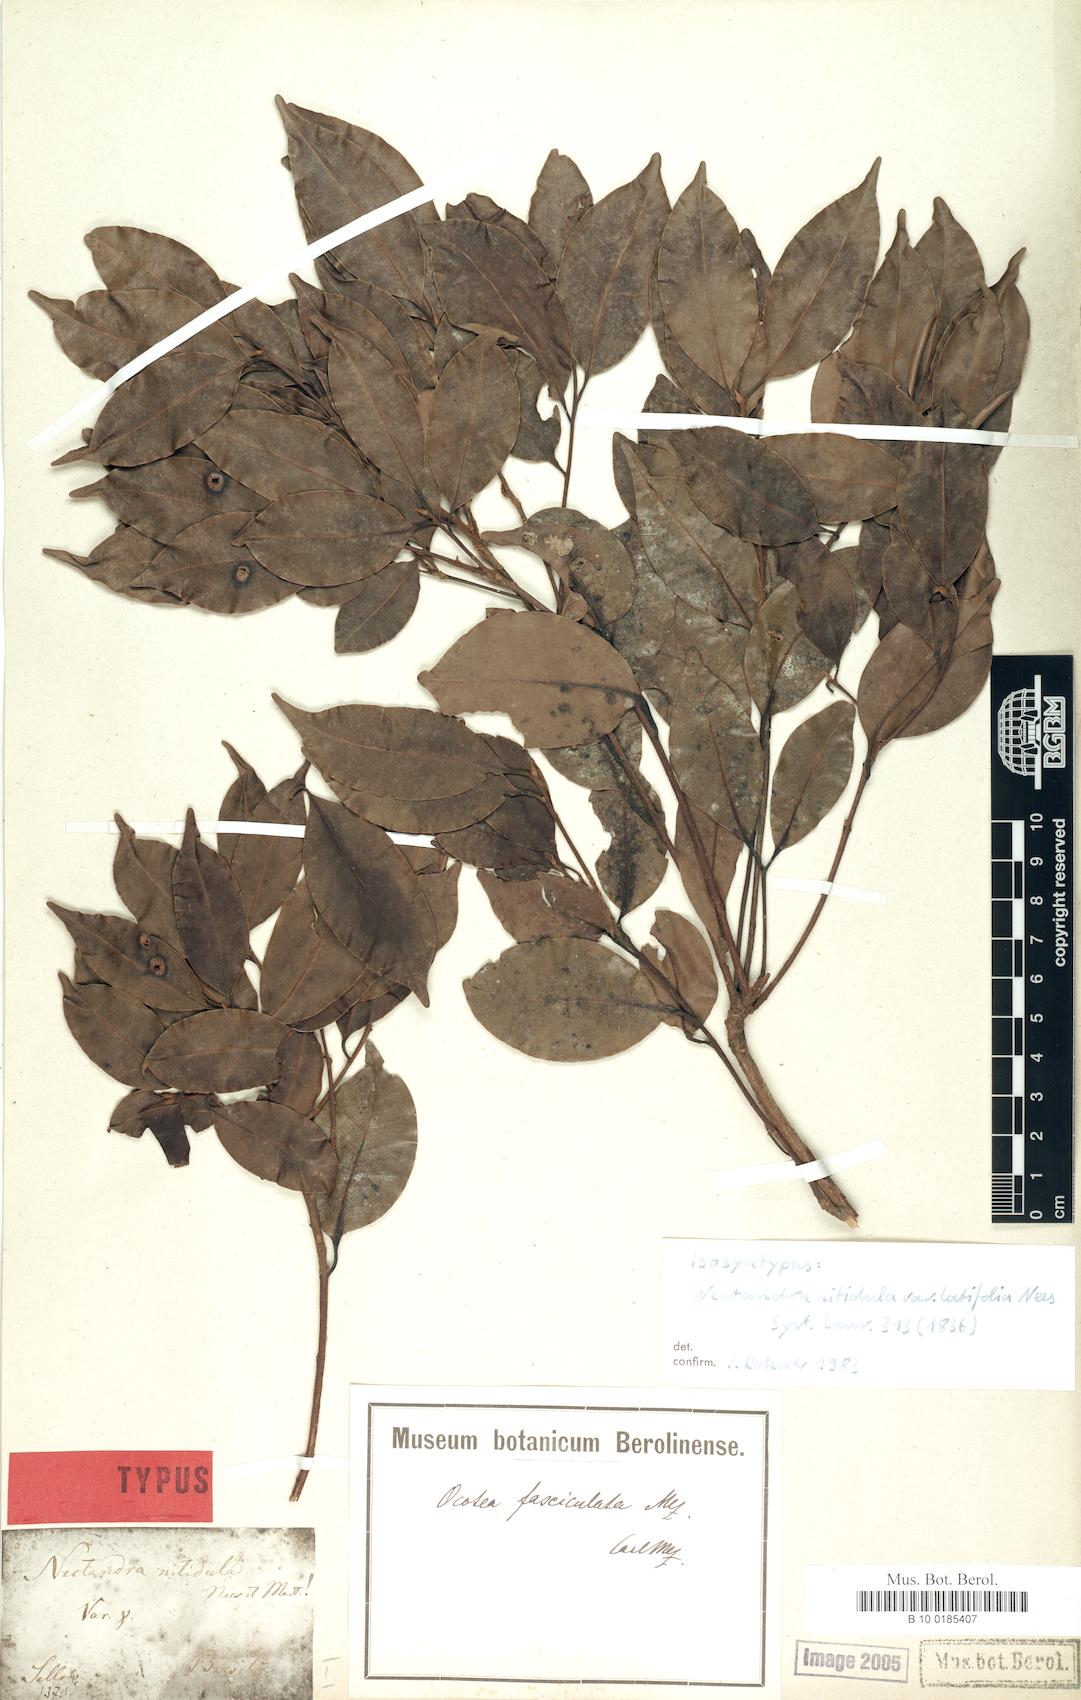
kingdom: Plantae
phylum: Tracheophyta
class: Magnoliopsida
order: Laurales
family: Lauraceae
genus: Mespilodaphne
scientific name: Mespilodaphne fasciculata
